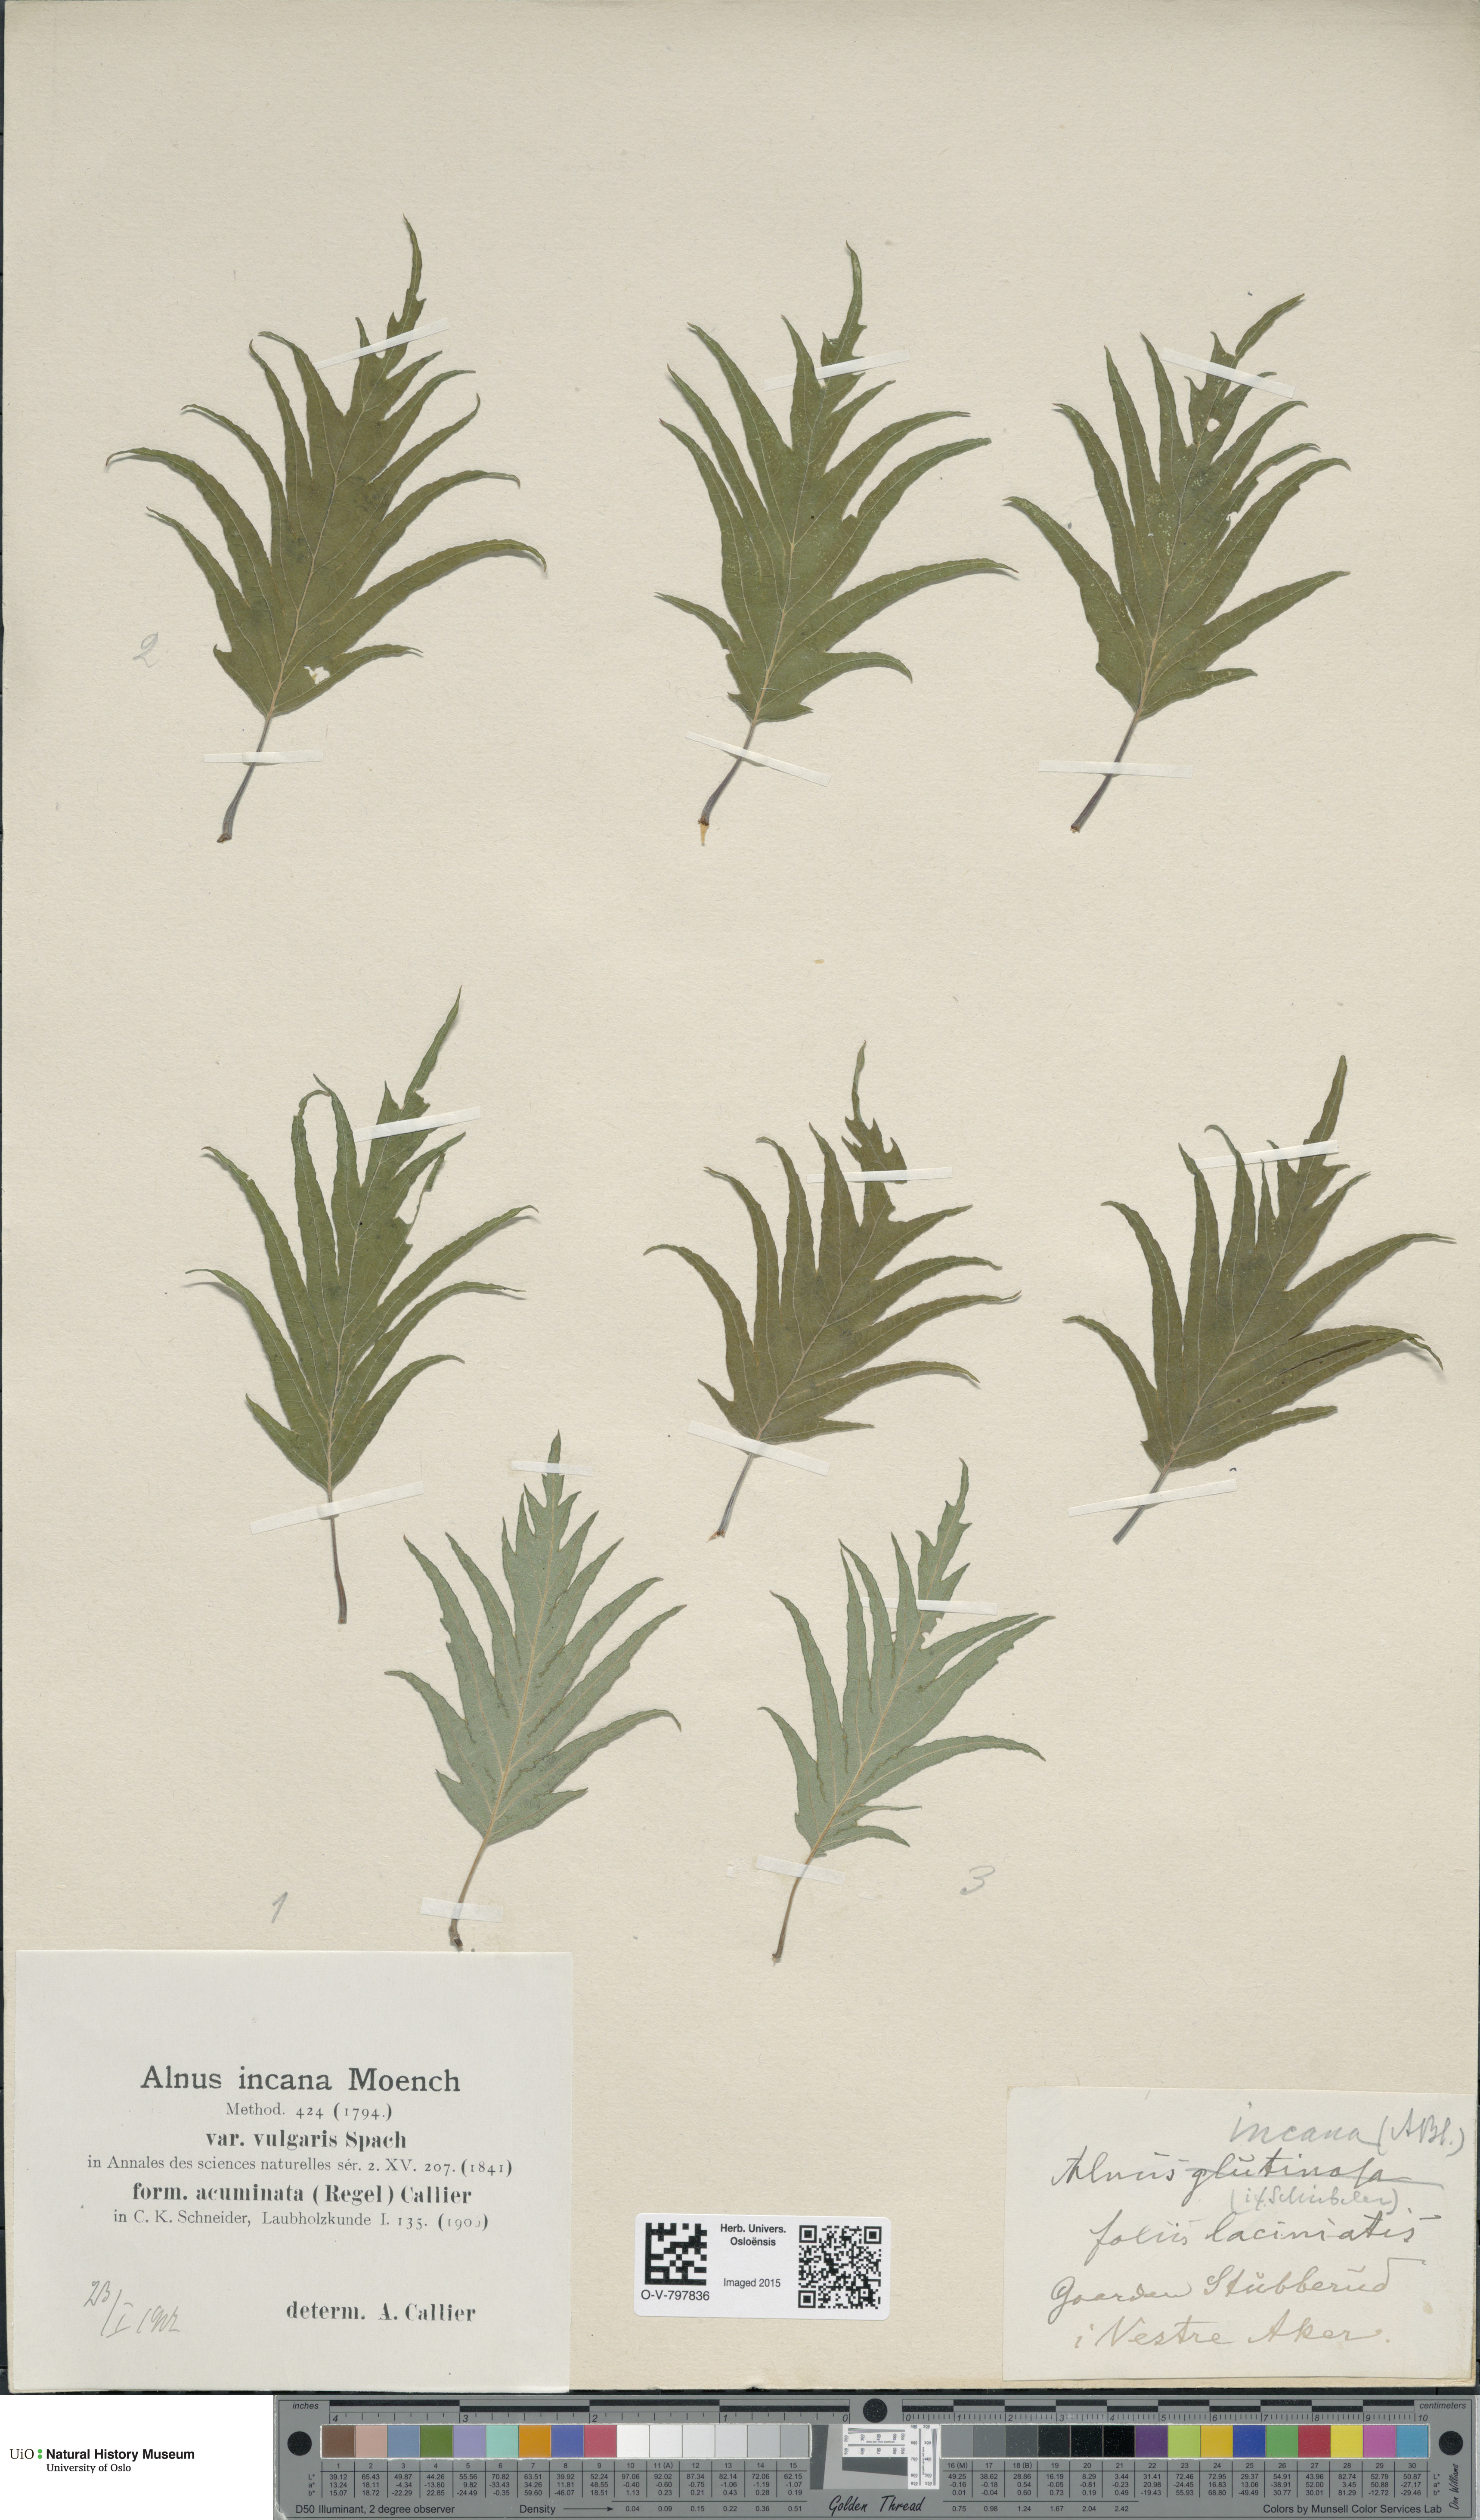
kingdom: Plantae
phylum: Tracheophyta
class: Magnoliopsida
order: Fagales
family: Betulaceae
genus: Alnus
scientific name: Alnus incana
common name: Grey alder
